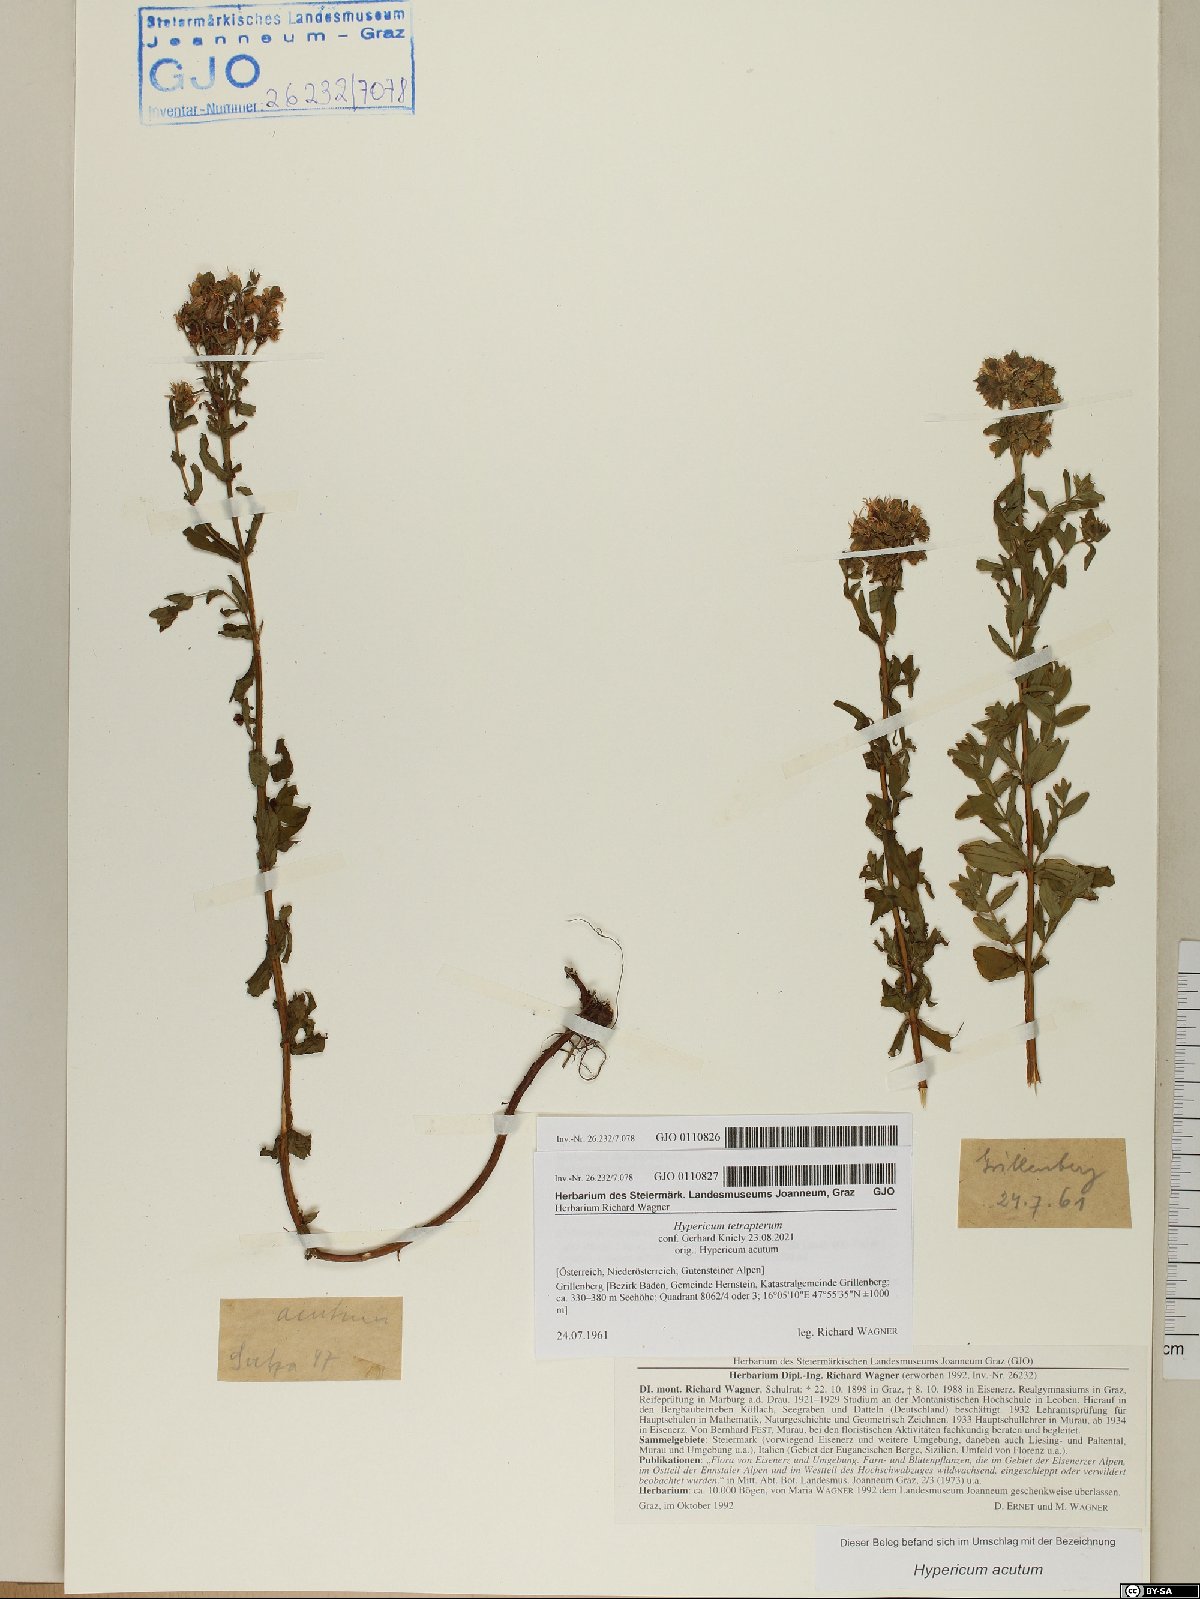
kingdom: Plantae
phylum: Tracheophyta
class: Magnoliopsida
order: Malpighiales
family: Hypericaceae
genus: Hypericum
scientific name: Hypericum tetrapterum
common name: Square-stalked st. john's-wort
